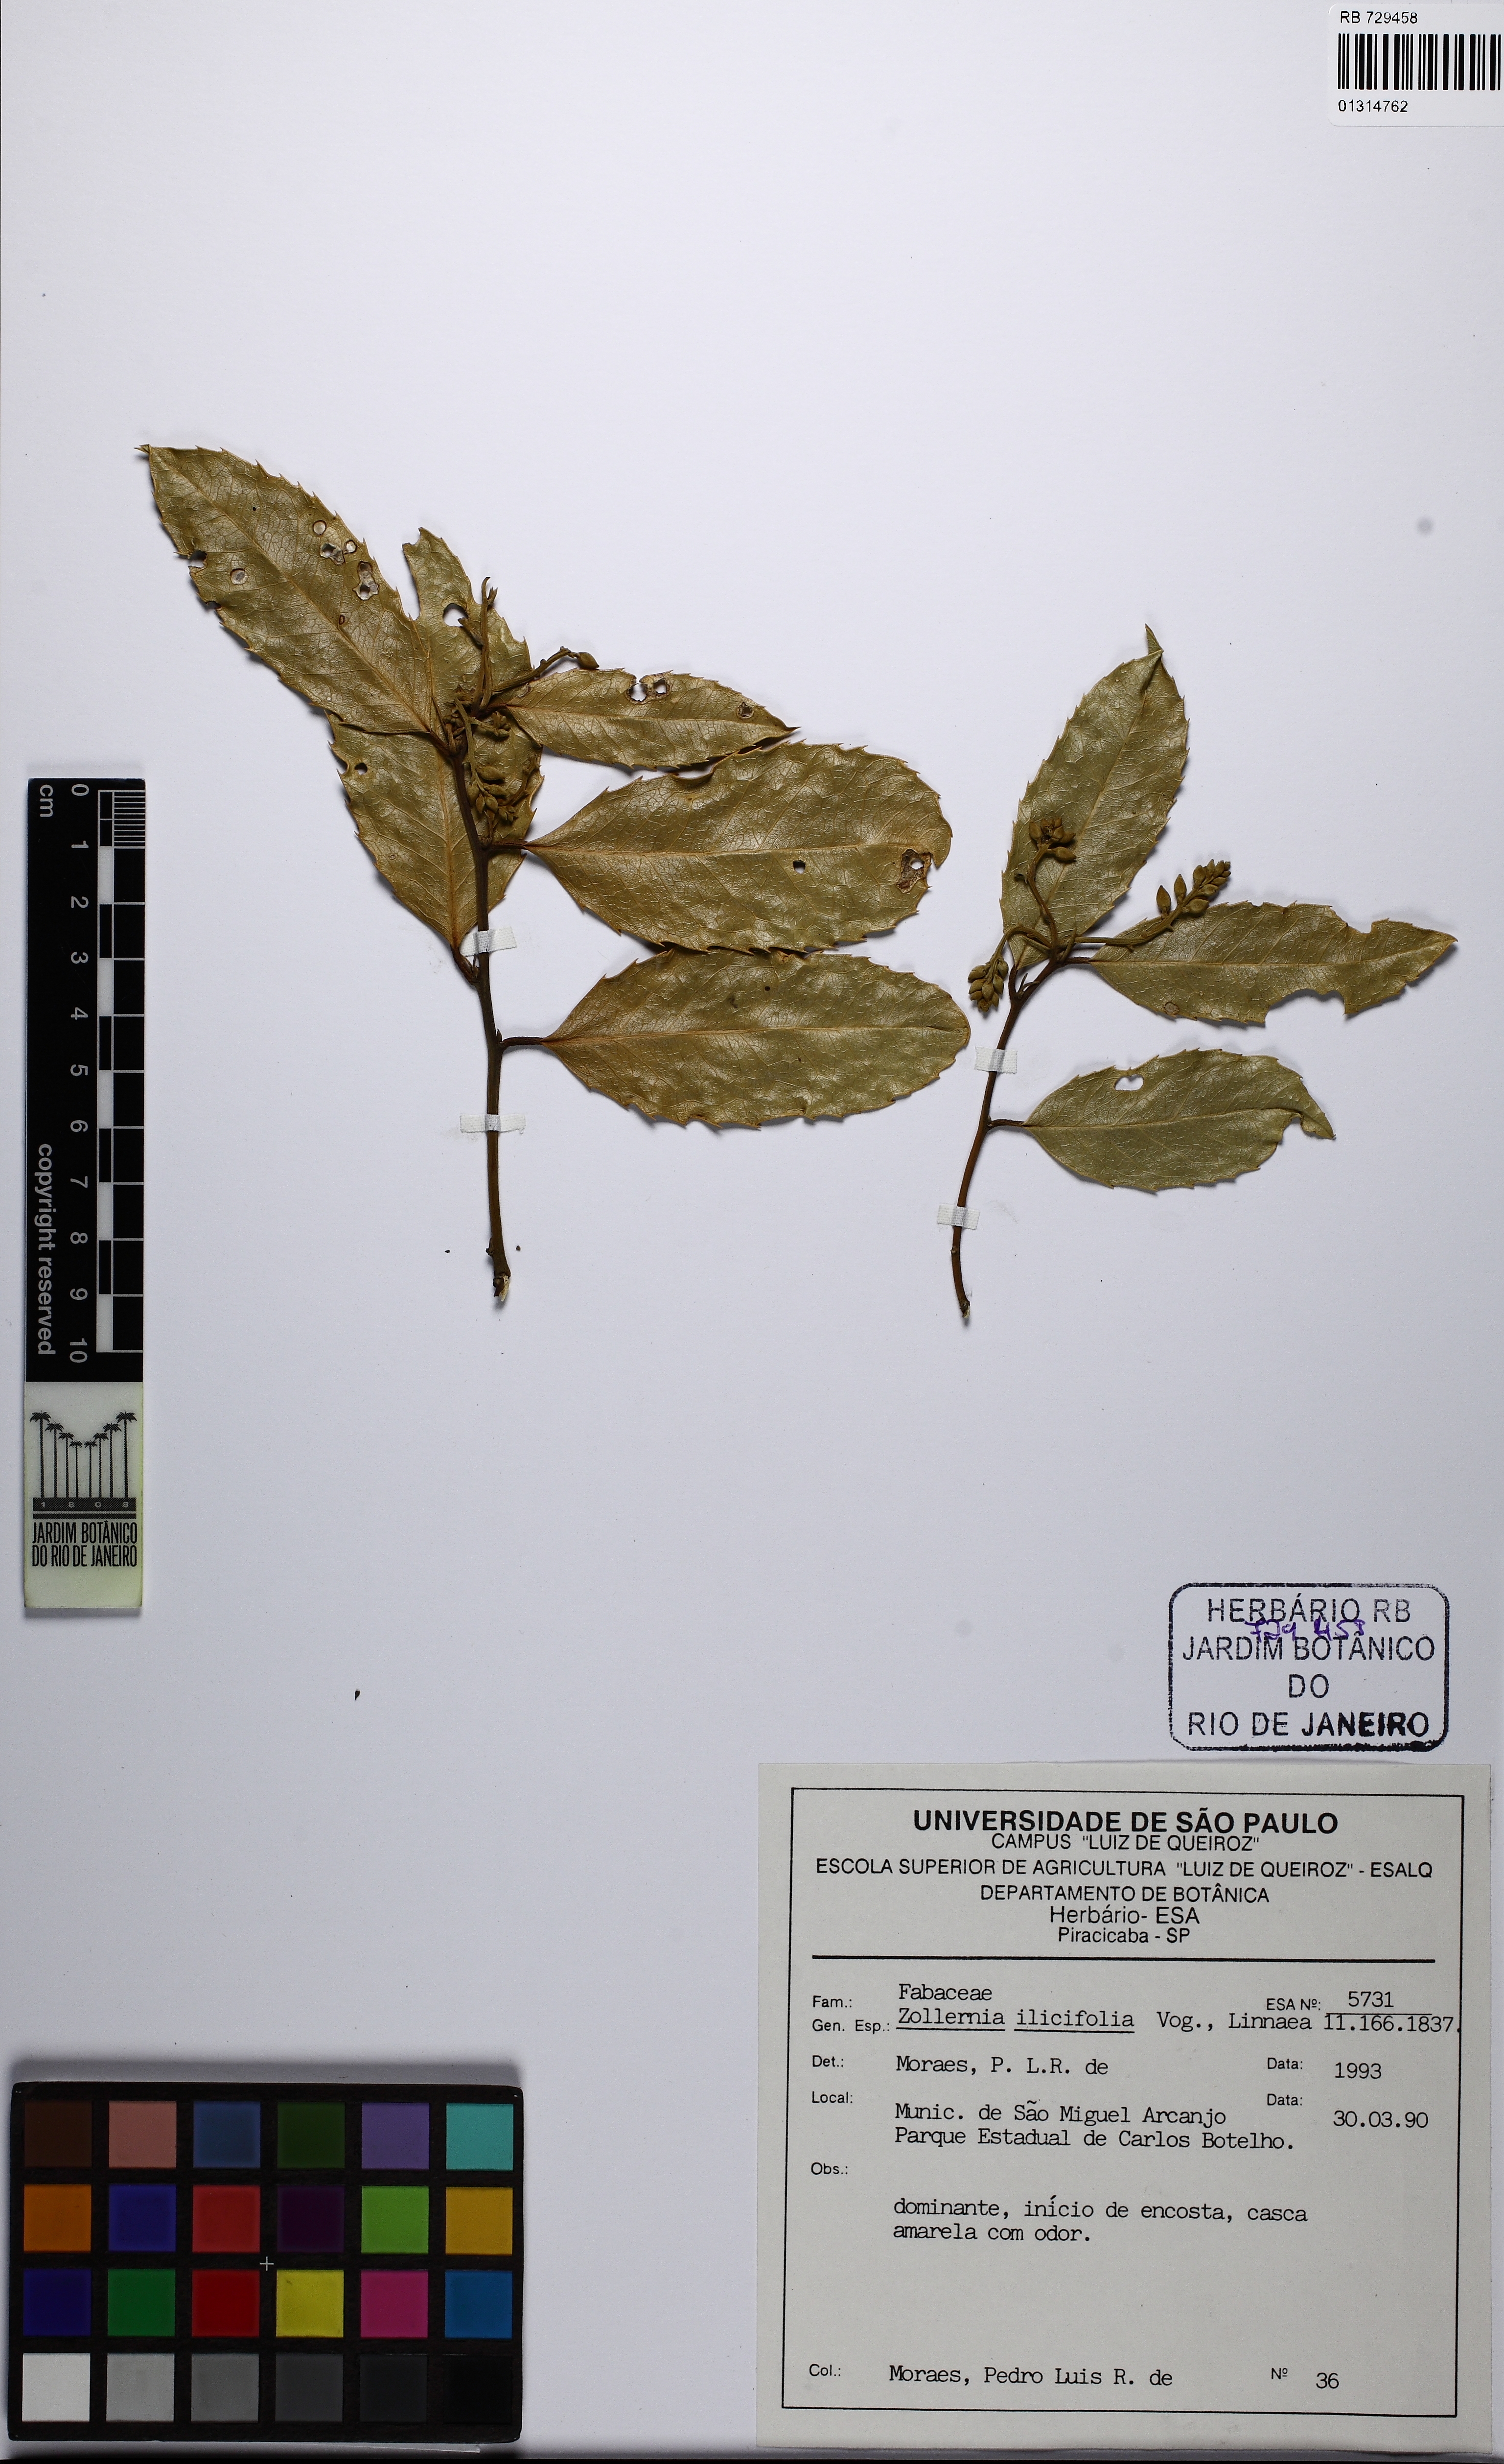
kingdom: Plantae
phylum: Tracheophyta
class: Magnoliopsida
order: Fabales
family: Fabaceae
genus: Zollernia
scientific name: Zollernia ilicifolia
